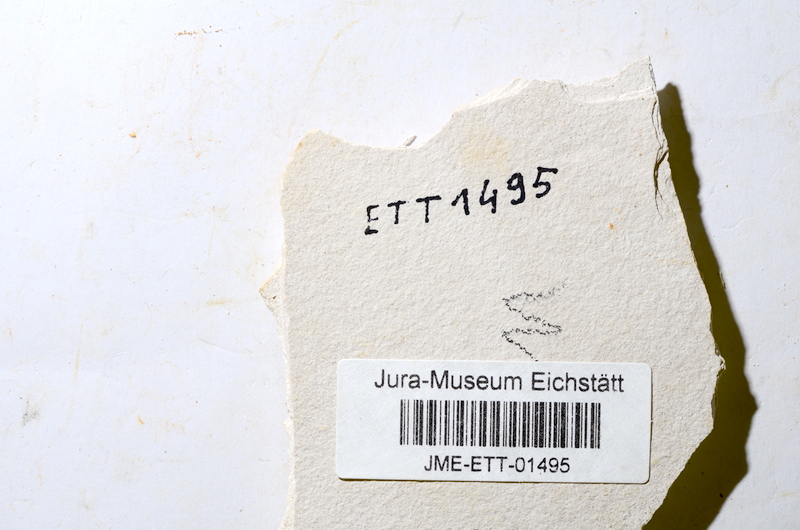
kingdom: Animalia
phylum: Chordata
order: Salmoniformes
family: Orthogonikleithridae
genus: Orthogonikleithrus
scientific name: Orthogonikleithrus
